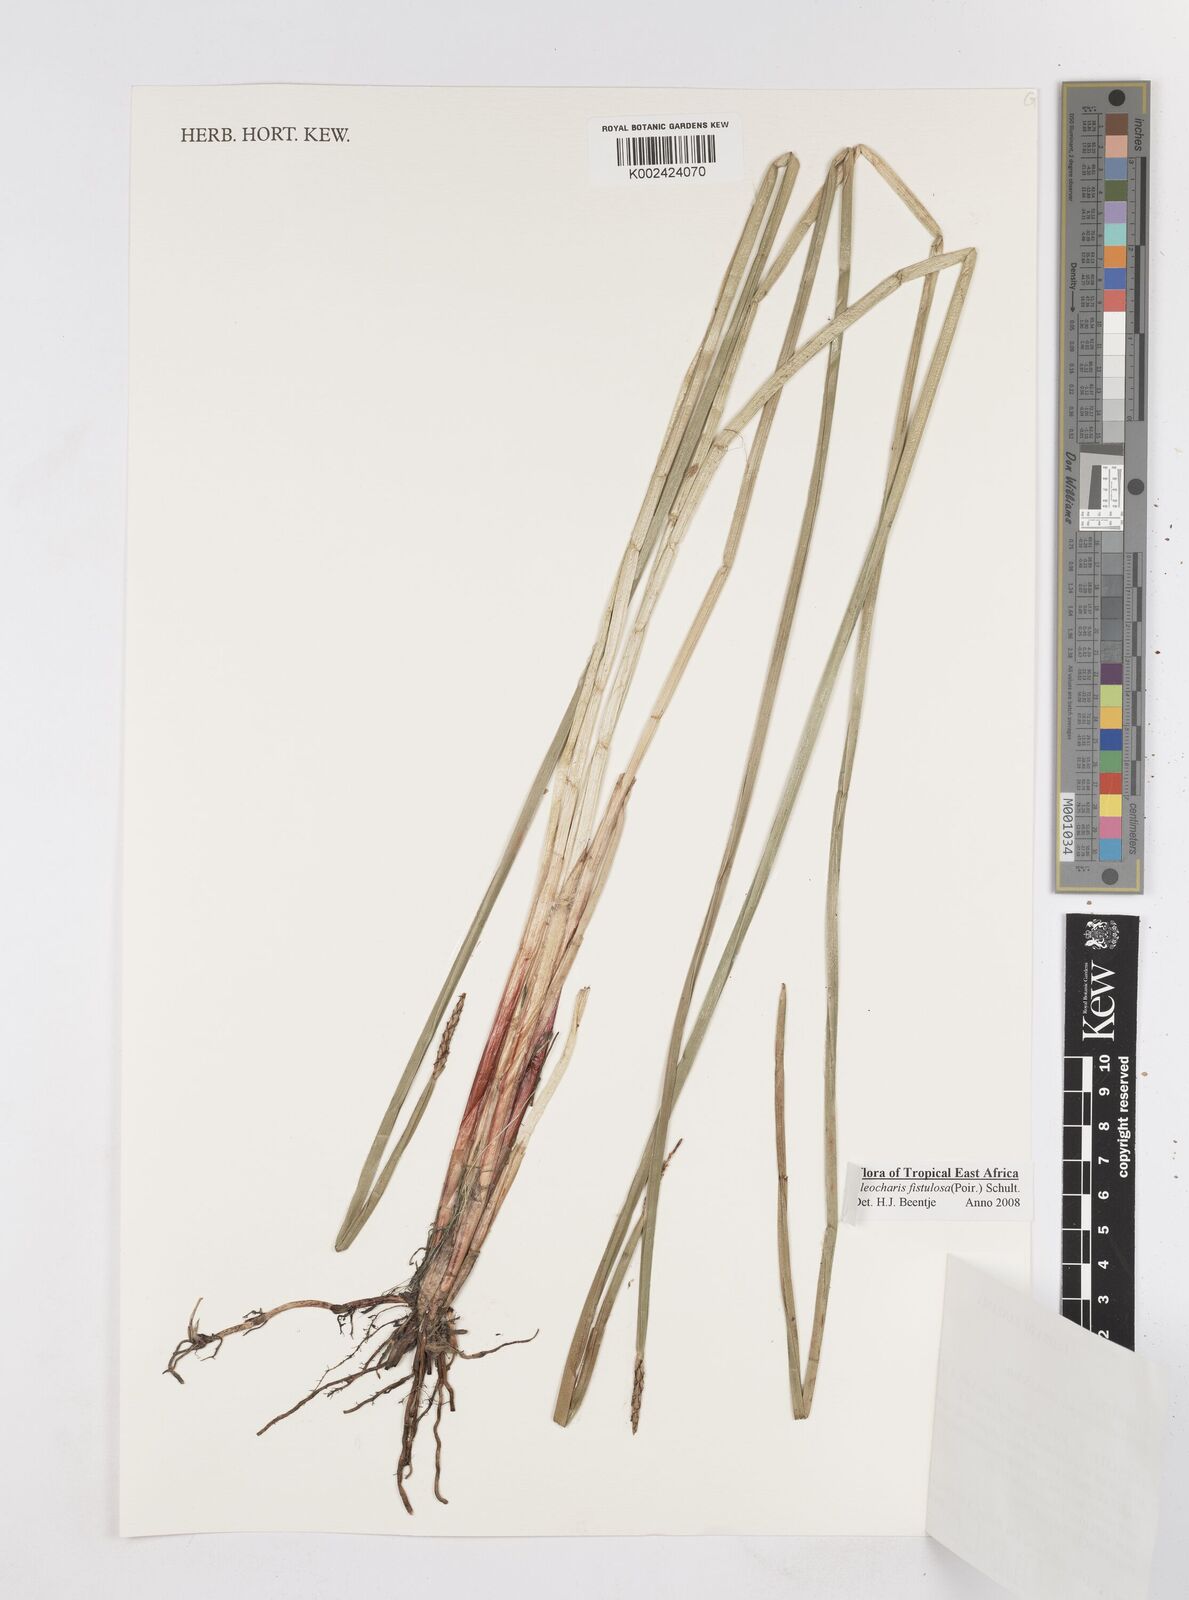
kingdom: Plantae
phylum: Tracheophyta
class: Liliopsida
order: Poales
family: Cyperaceae
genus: Eleocharis
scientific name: Eleocharis acutangula
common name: Acute spikerush
